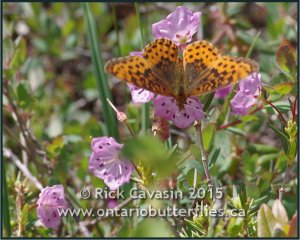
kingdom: Animalia
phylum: Arthropoda
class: Insecta
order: Lepidoptera
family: Nymphalidae
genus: Clossiana
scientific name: Clossiana toddi
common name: Meadow Fritillary
